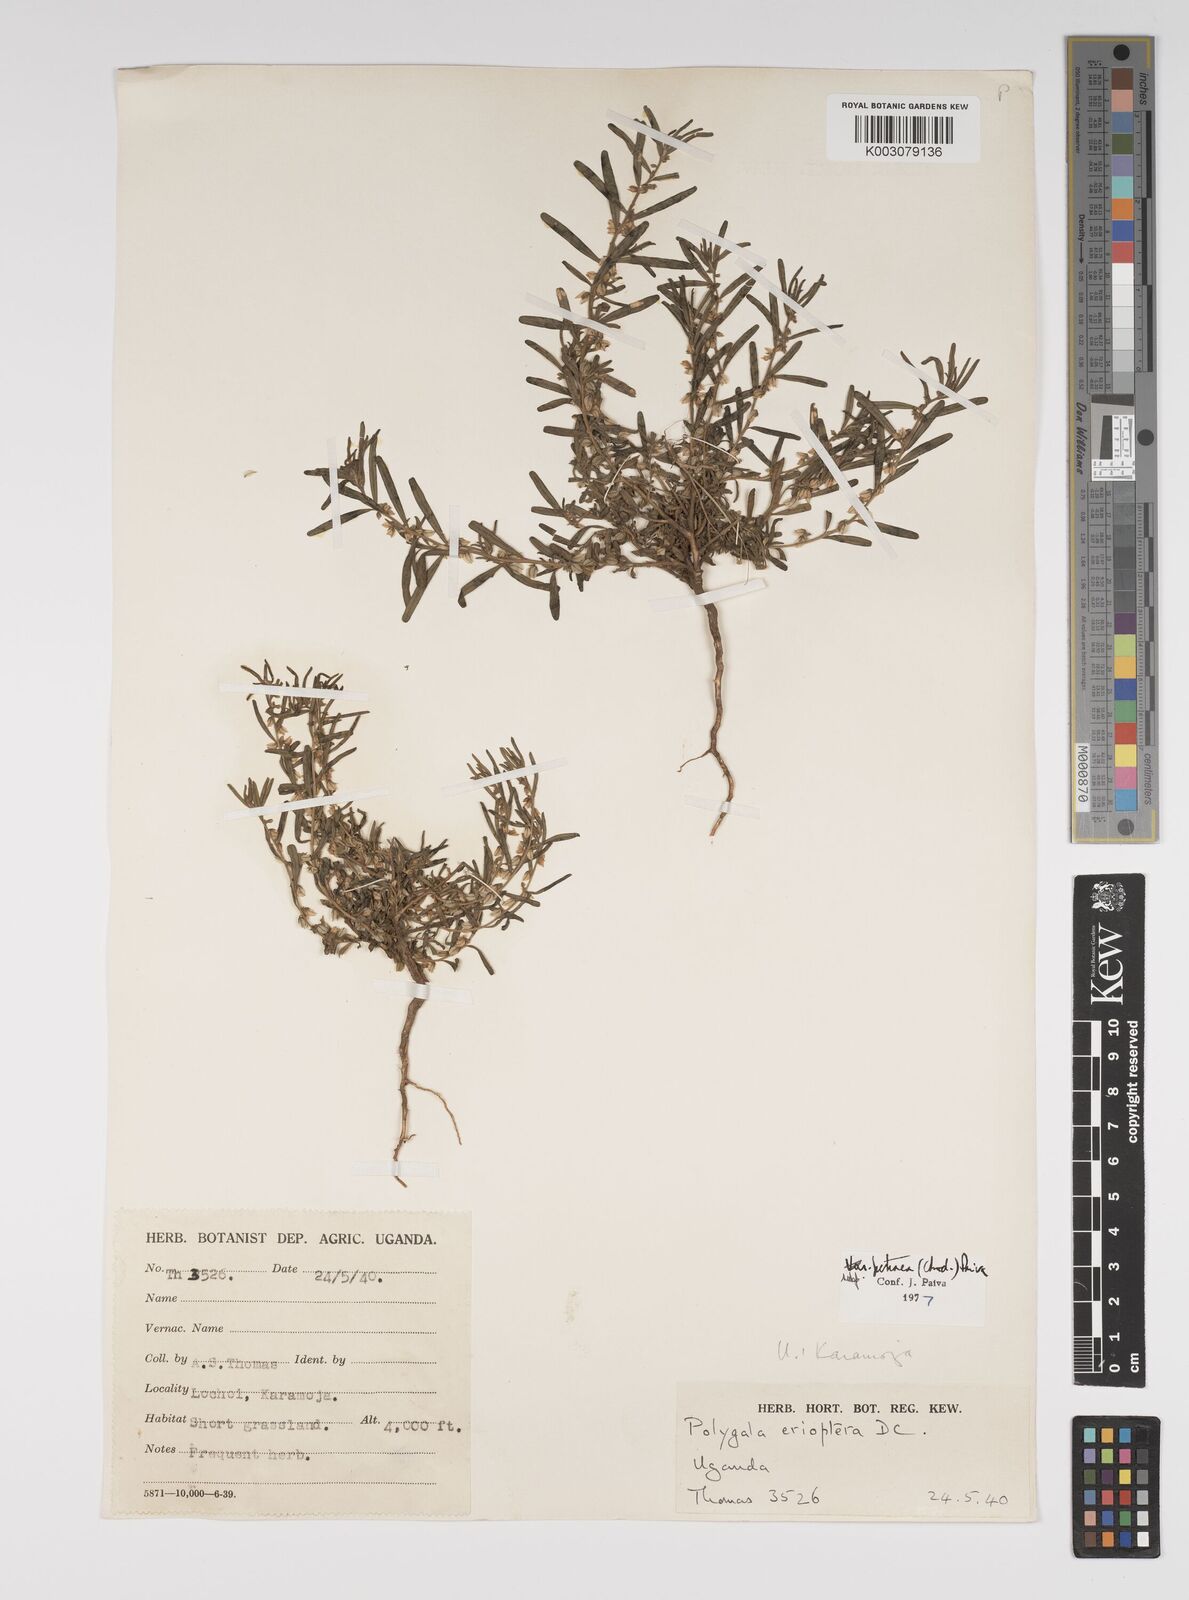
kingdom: Plantae
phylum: Tracheophyta
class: Magnoliopsida
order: Fabales
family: Polygalaceae
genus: Polygala
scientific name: Polygala erioptera
